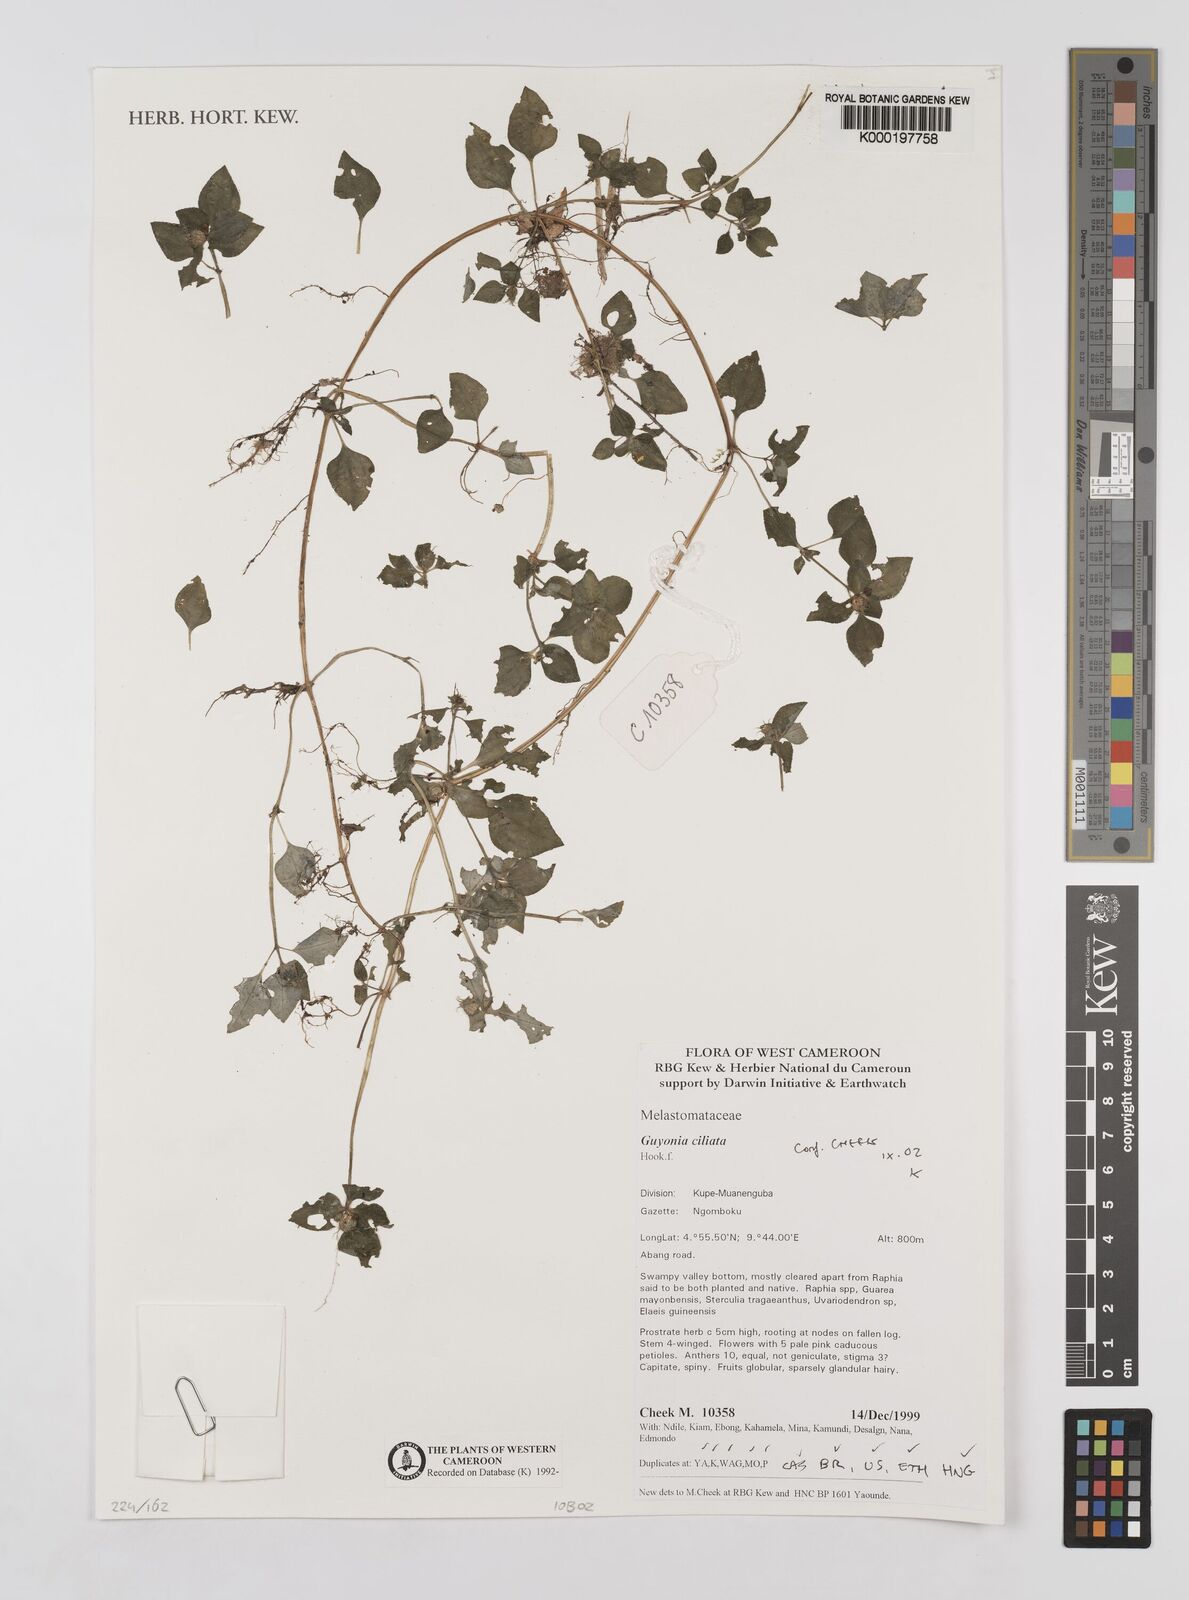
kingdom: Plantae
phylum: Tracheophyta
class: Magnoliopsida
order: Myrtales
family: Melastomataceae
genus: Guyonia
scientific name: Guyonia ciliata
